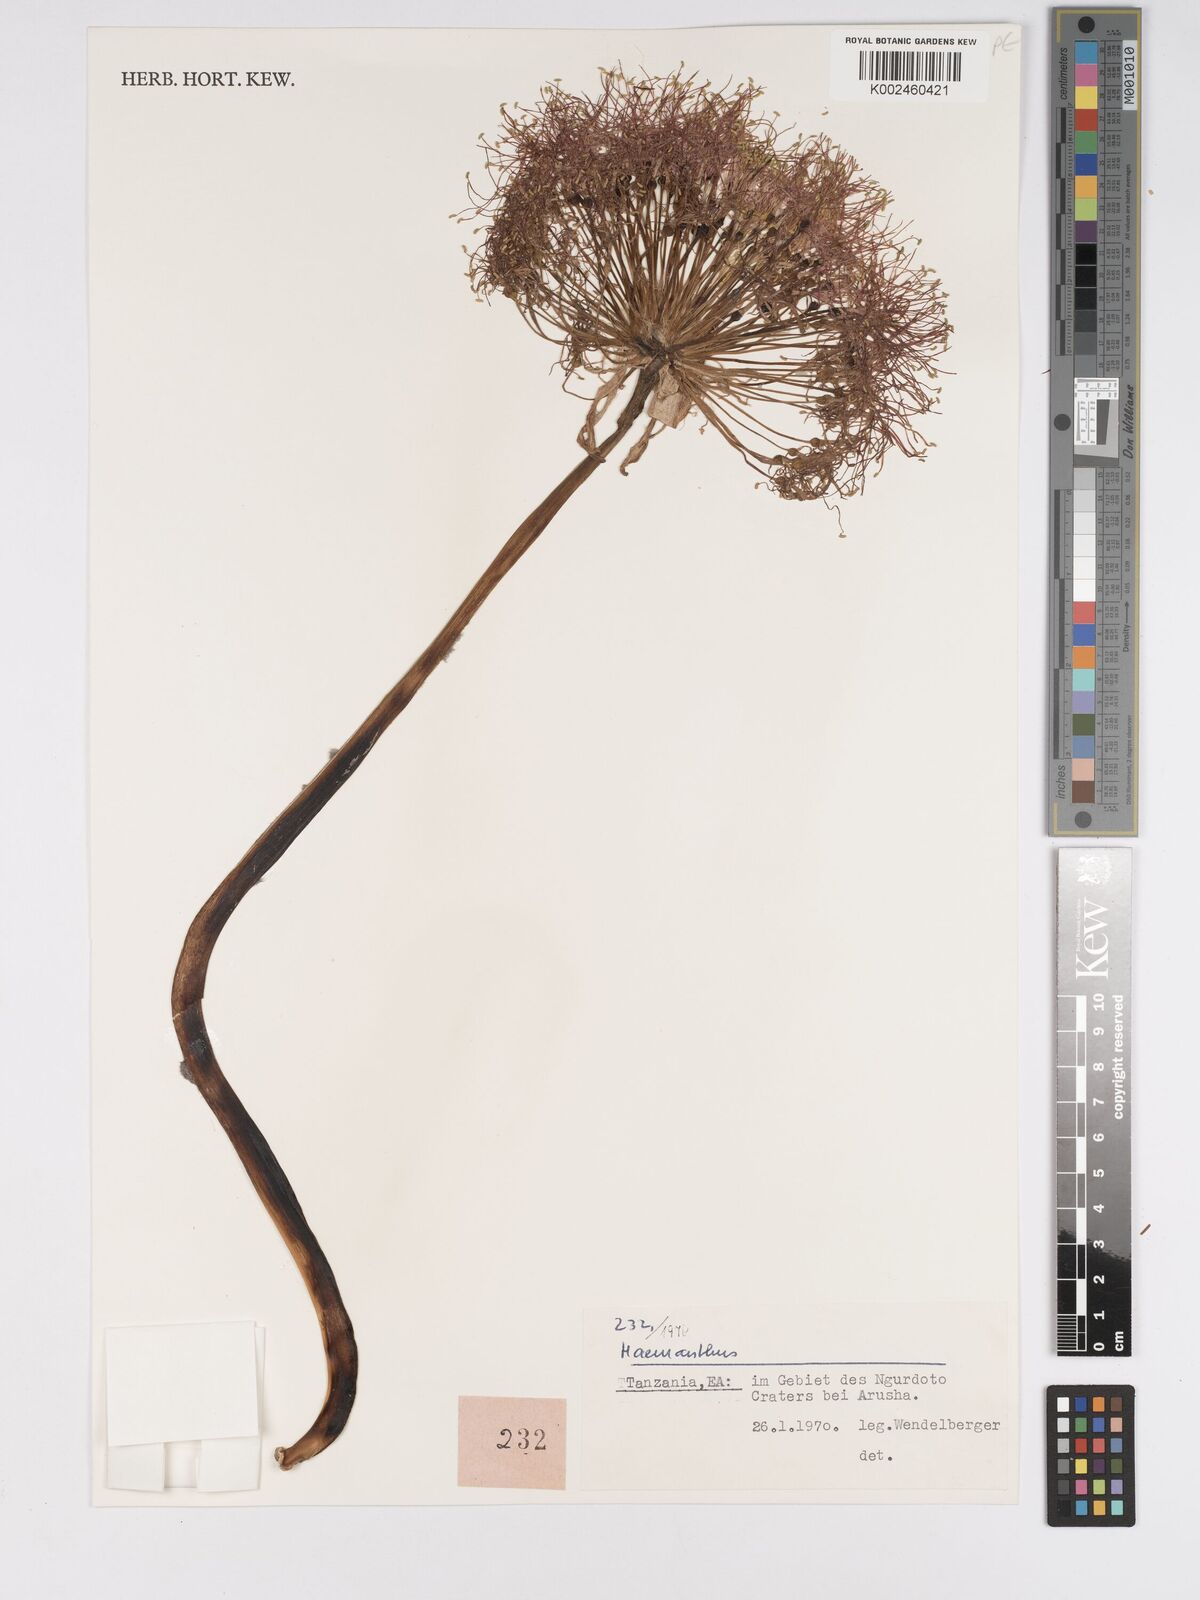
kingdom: Plantae
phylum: Tracheophyta
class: Liliopsida
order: Asparagales
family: Amaryllidaceae
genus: Scadoxus
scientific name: Scadoxus multiflorus
